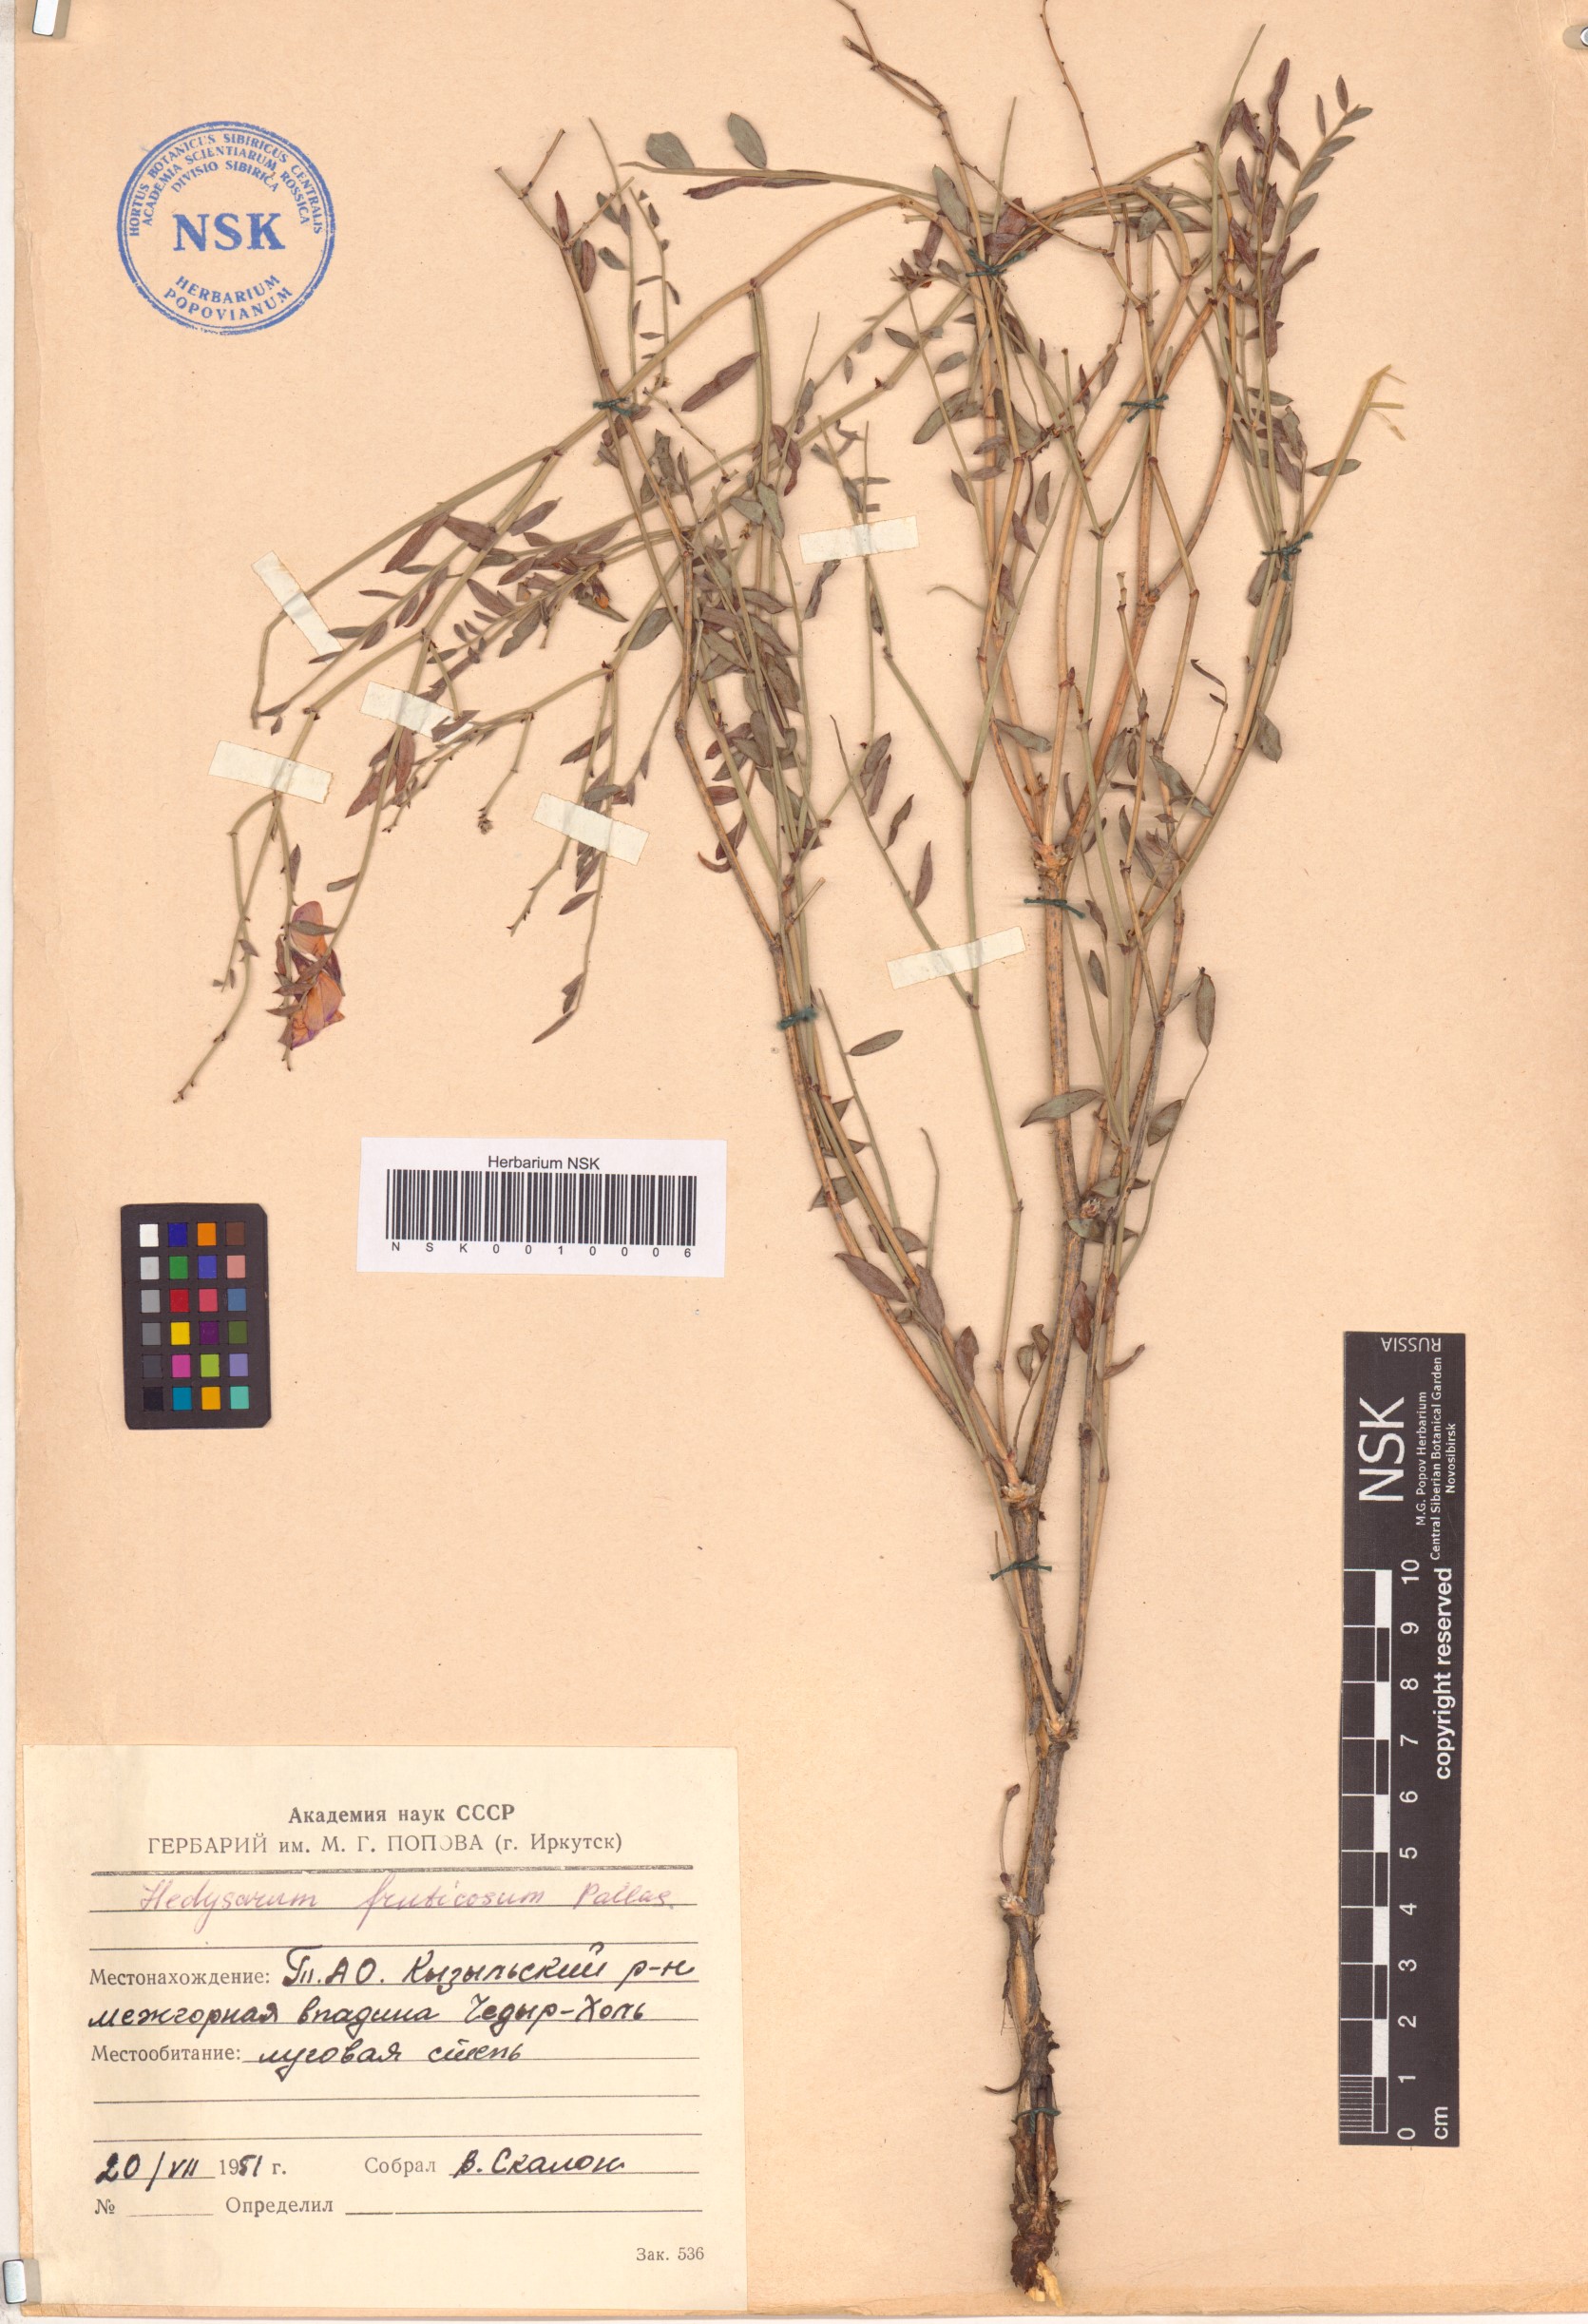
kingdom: Plantae
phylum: Tracheophyta
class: Magnoliopsida
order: Fabales
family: Fabaceae
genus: Corethrodendron
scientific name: Corethrodendron fruticosum
